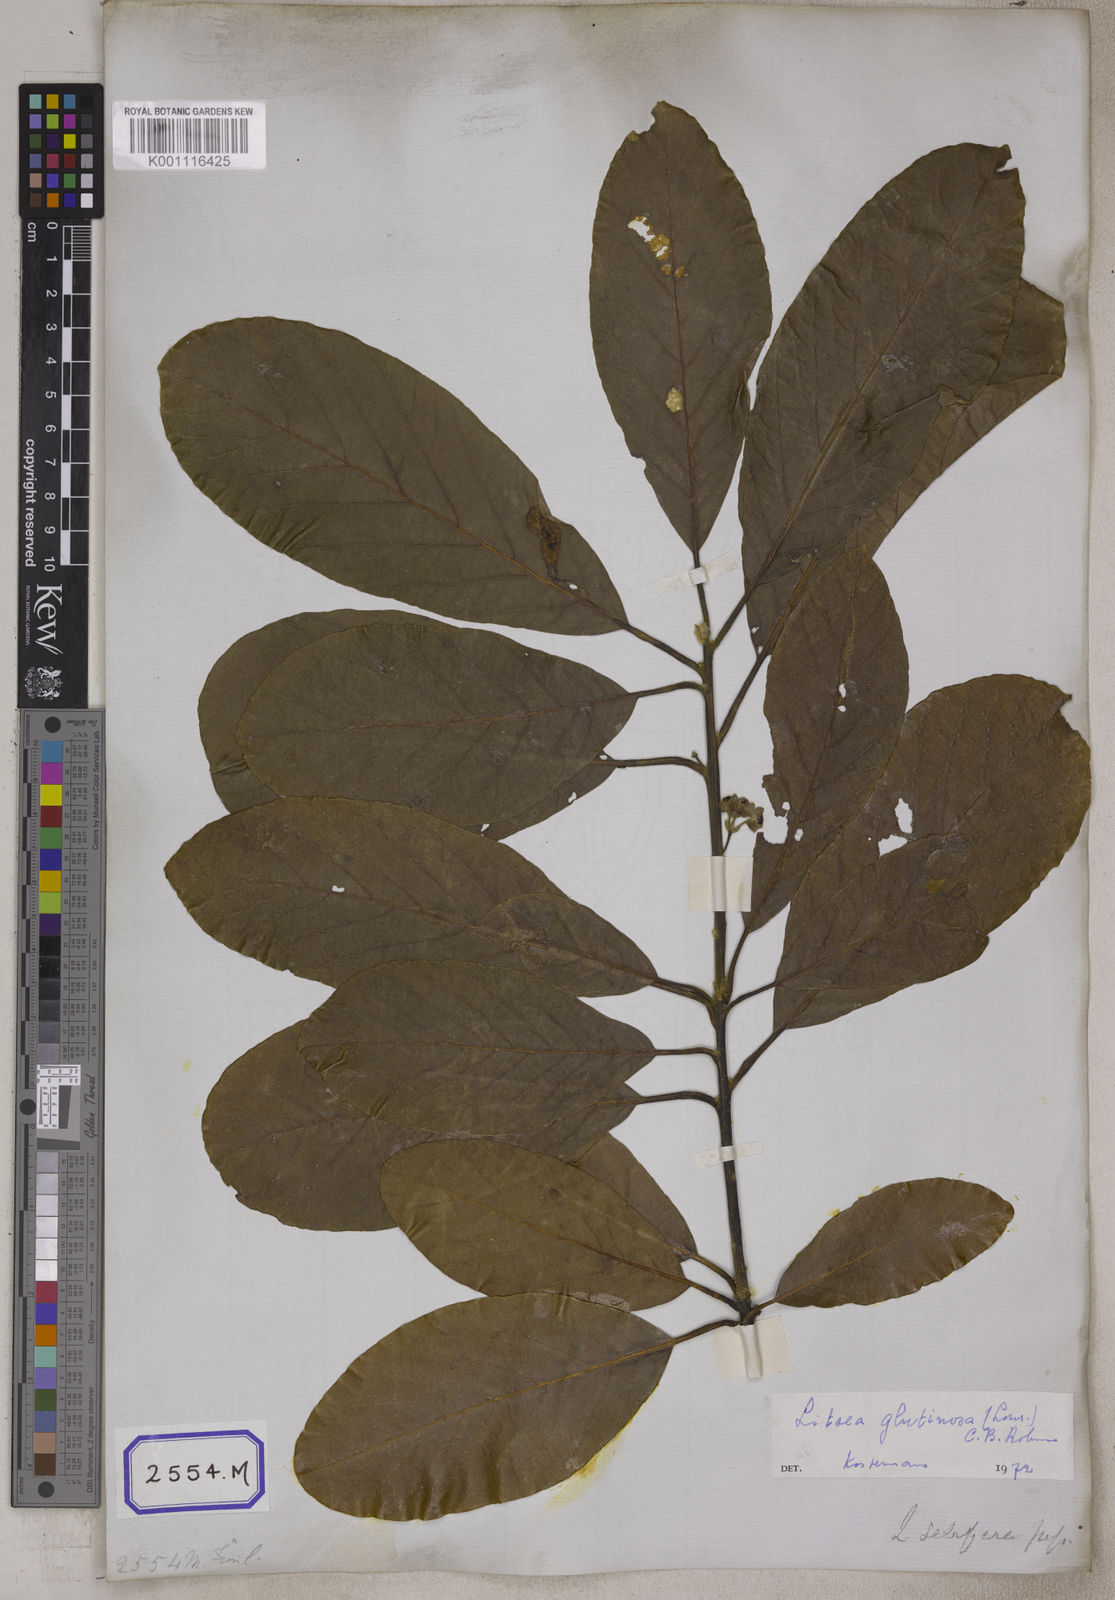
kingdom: Plantae
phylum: Tracheophyta
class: Magnoliopsida
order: Laurales
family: Lauraceae
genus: Litsea
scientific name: Litsea glutinosa
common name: Indian-laurel
